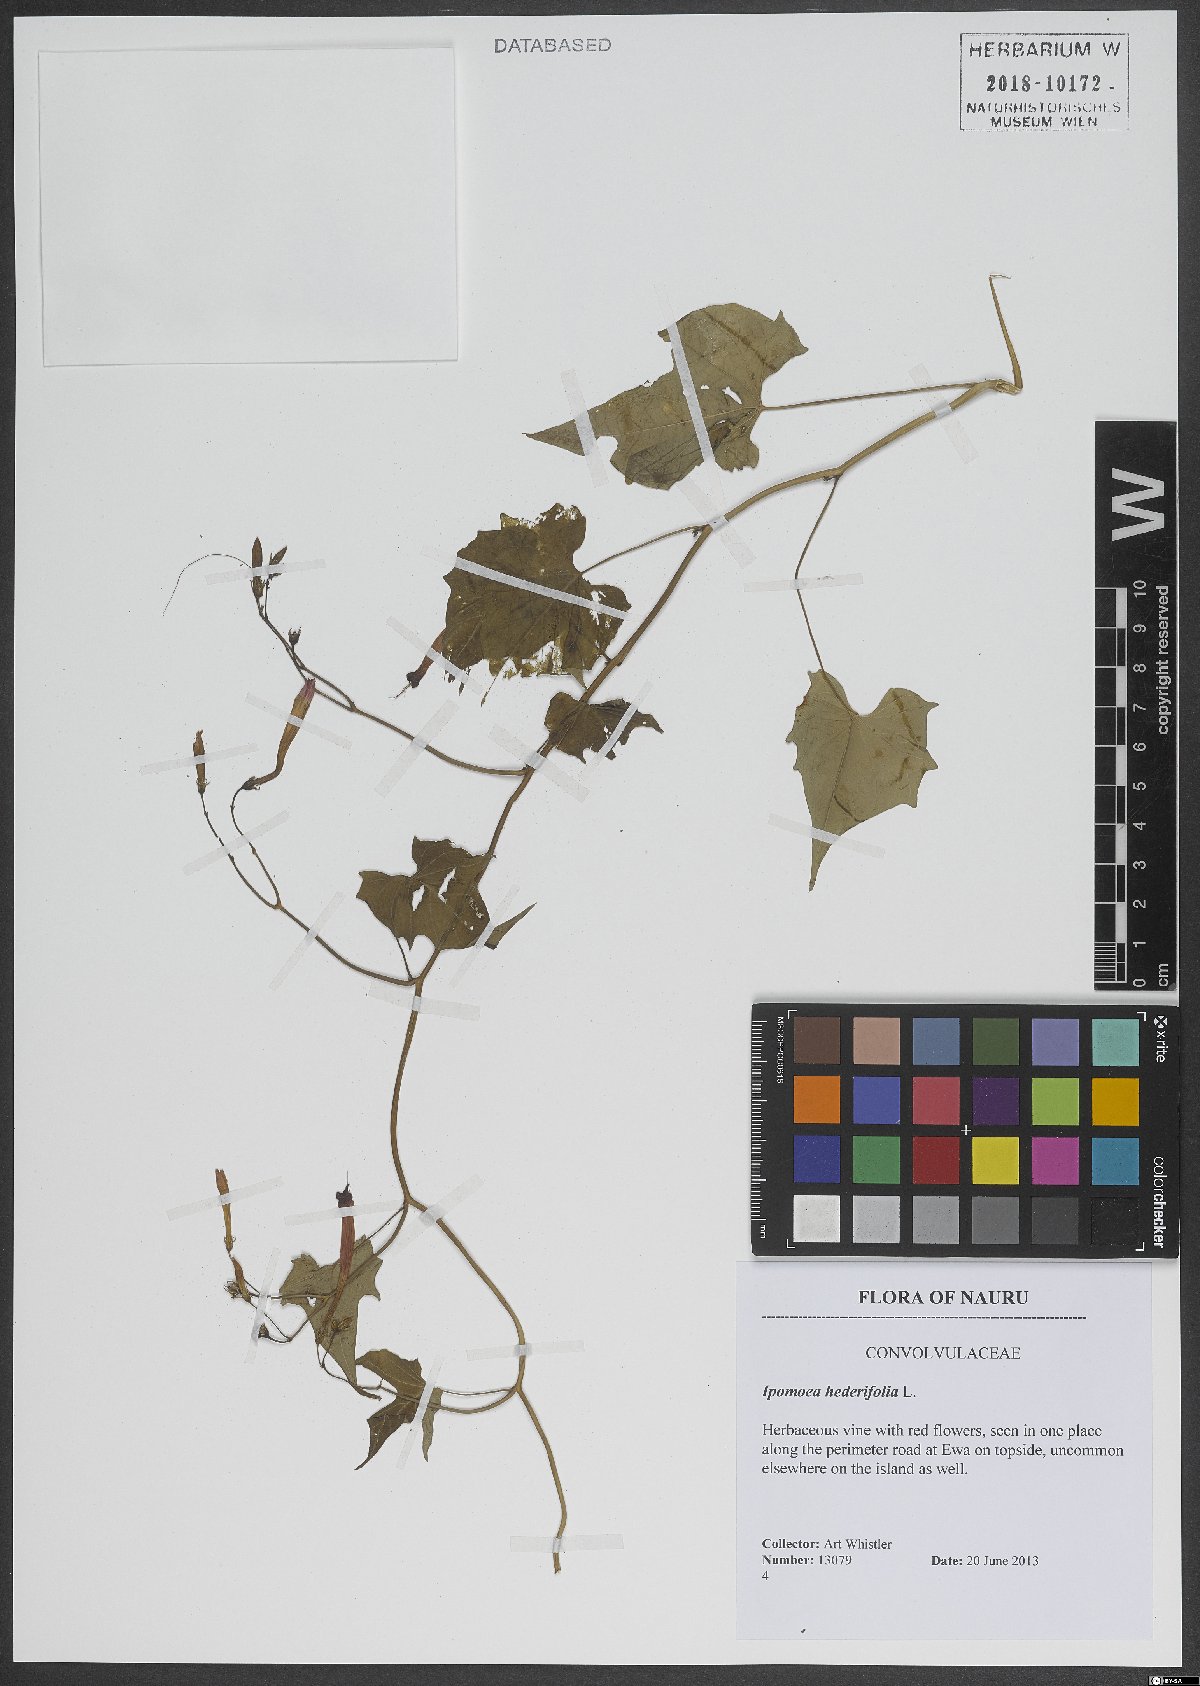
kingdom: Plantae
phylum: Tracheophyta
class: Magnoliopsida
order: Solanales
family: Convolvulaceae
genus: Ipomoea
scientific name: Ipomoea hederifolia
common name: Ivy-leaf morning-glory
